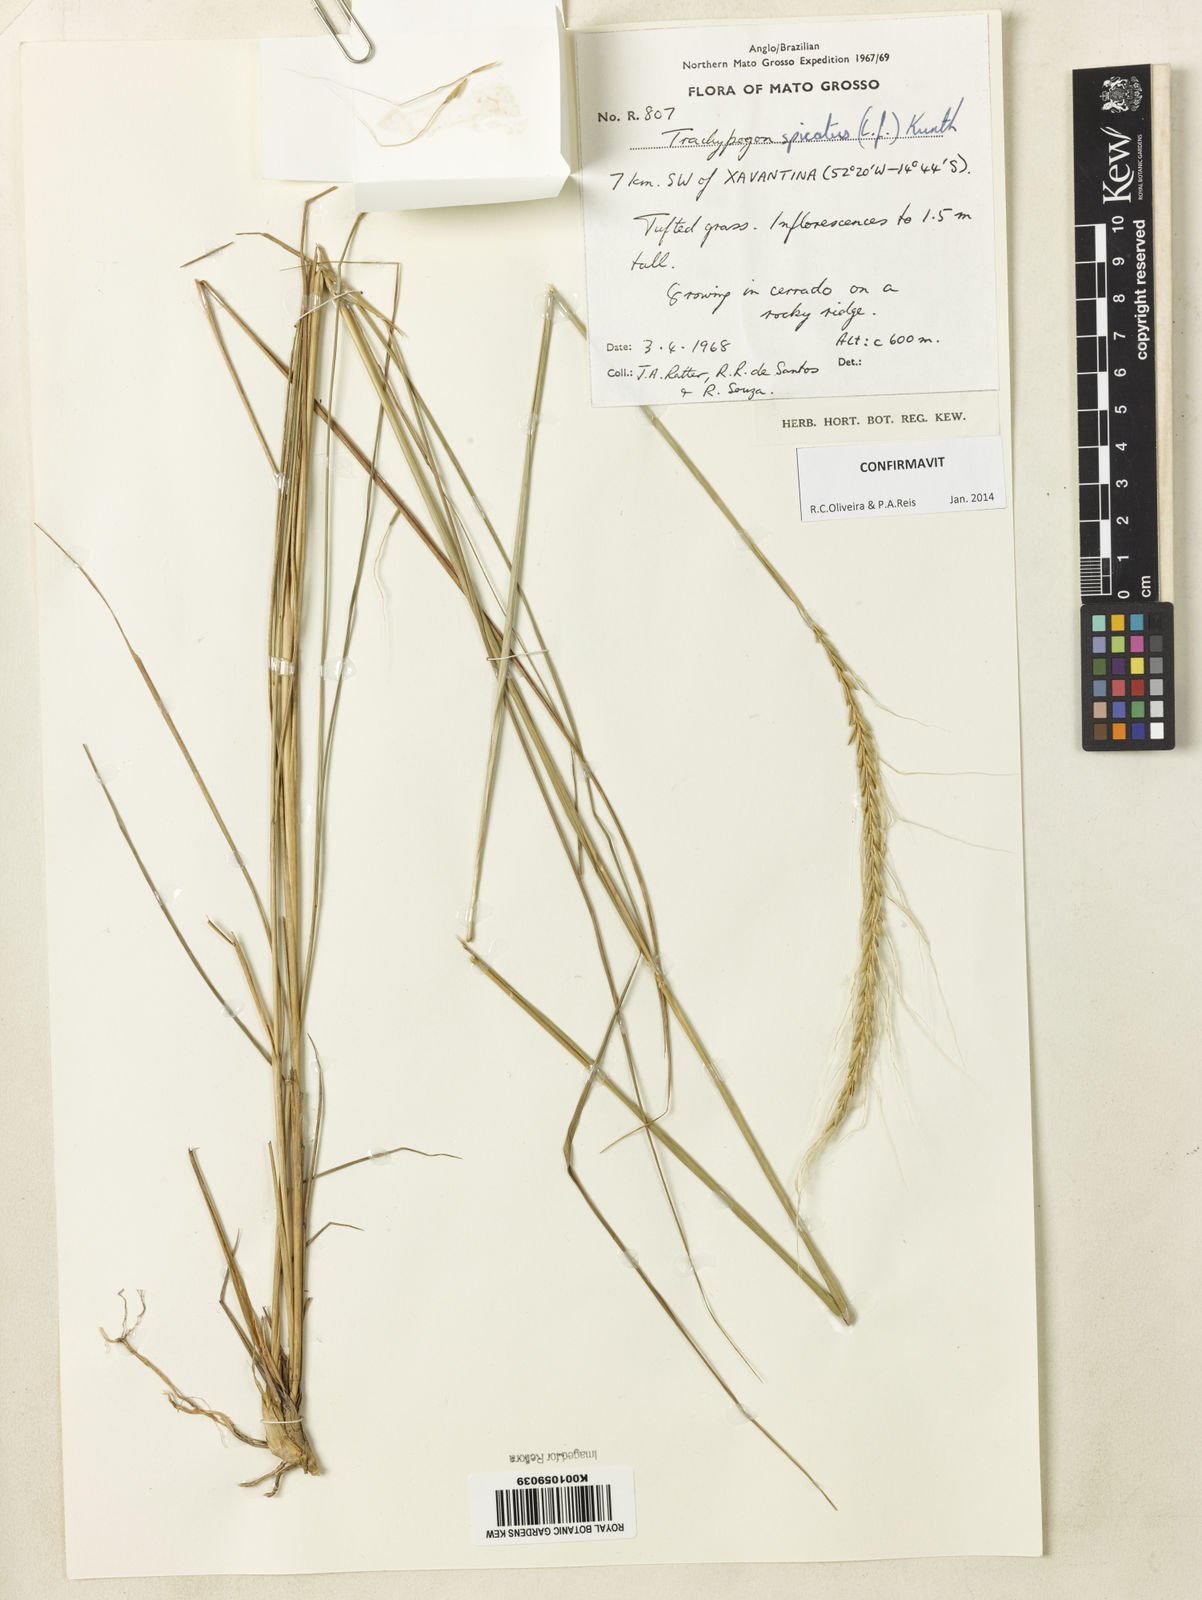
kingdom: Plantae
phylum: Tracheophyta
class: Liliopsida
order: Poales
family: Poaceae
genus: Trachypogon
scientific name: Trachypogon spicatus
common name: Crinkle-awn
